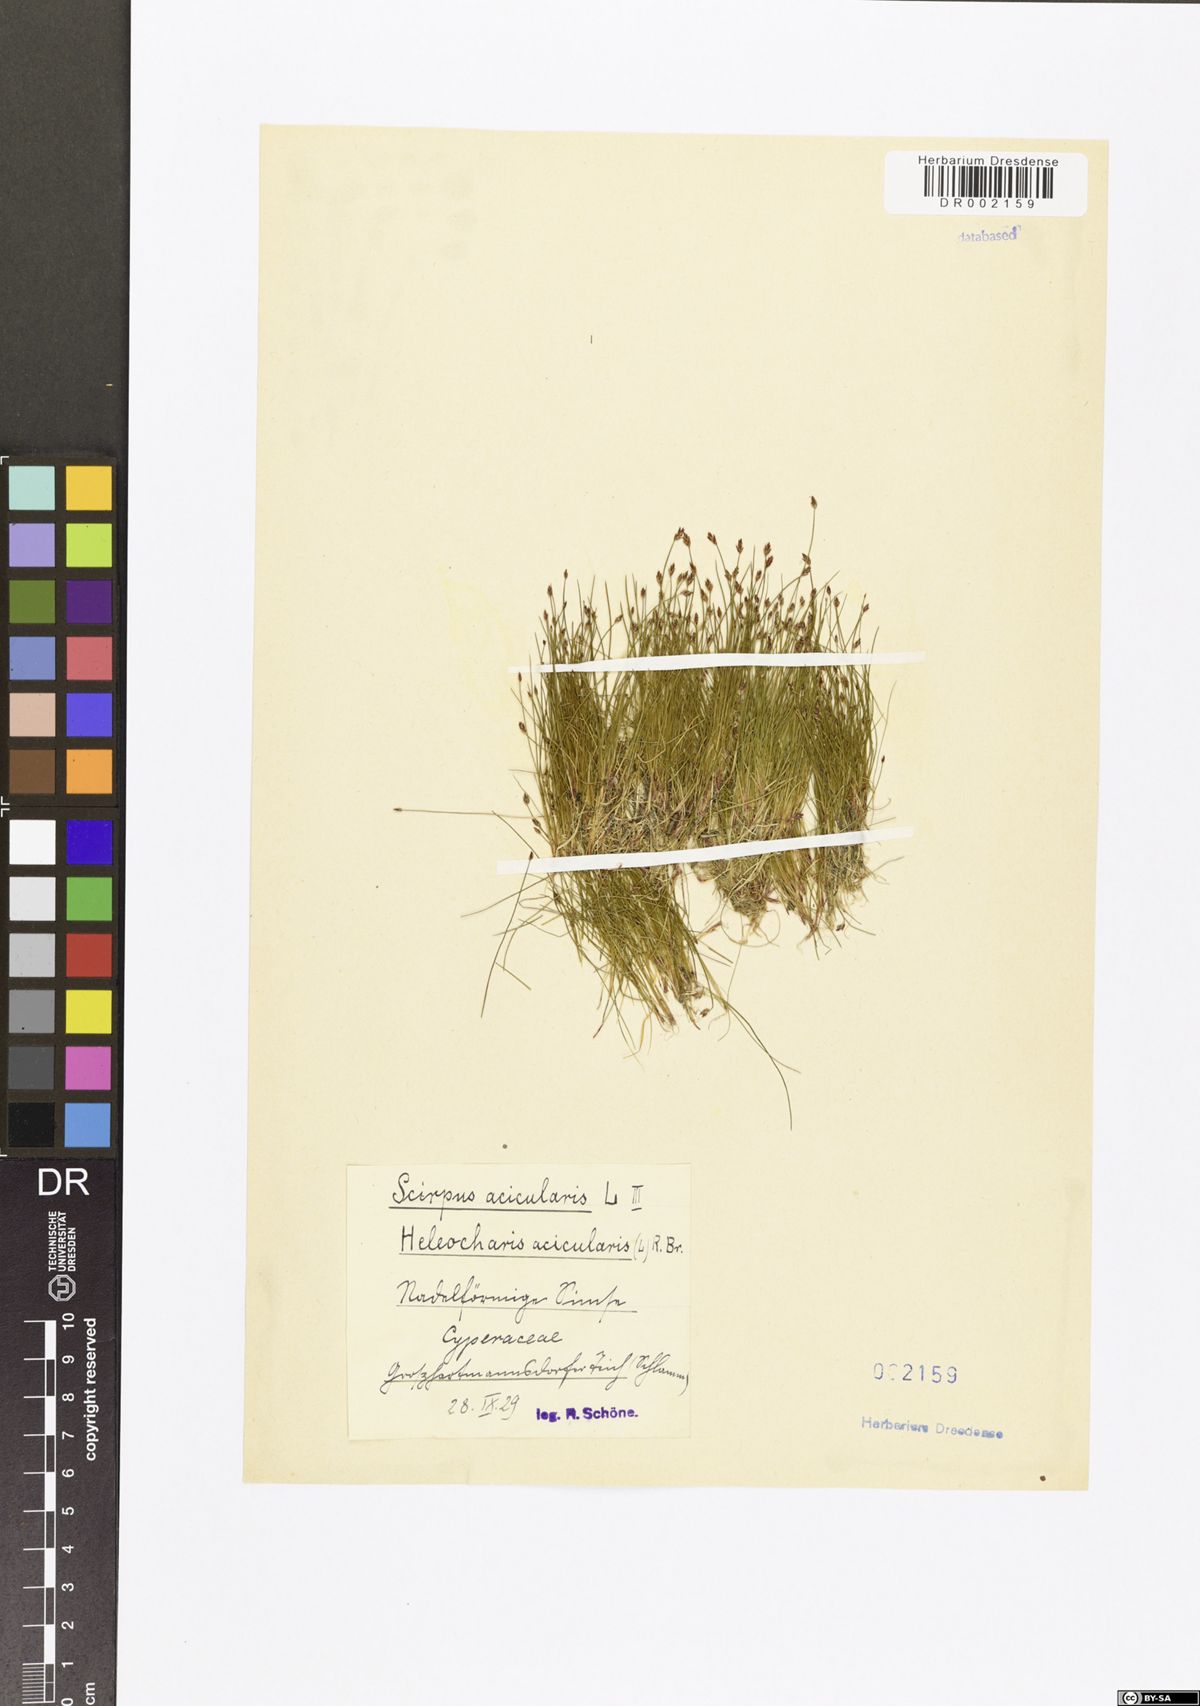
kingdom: Plantae
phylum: Tracheophyta
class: Liliopsida
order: Poales
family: Cyperaceae
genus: Eleocharis
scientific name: Eleocharis acicularis
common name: Needle spike-rush
